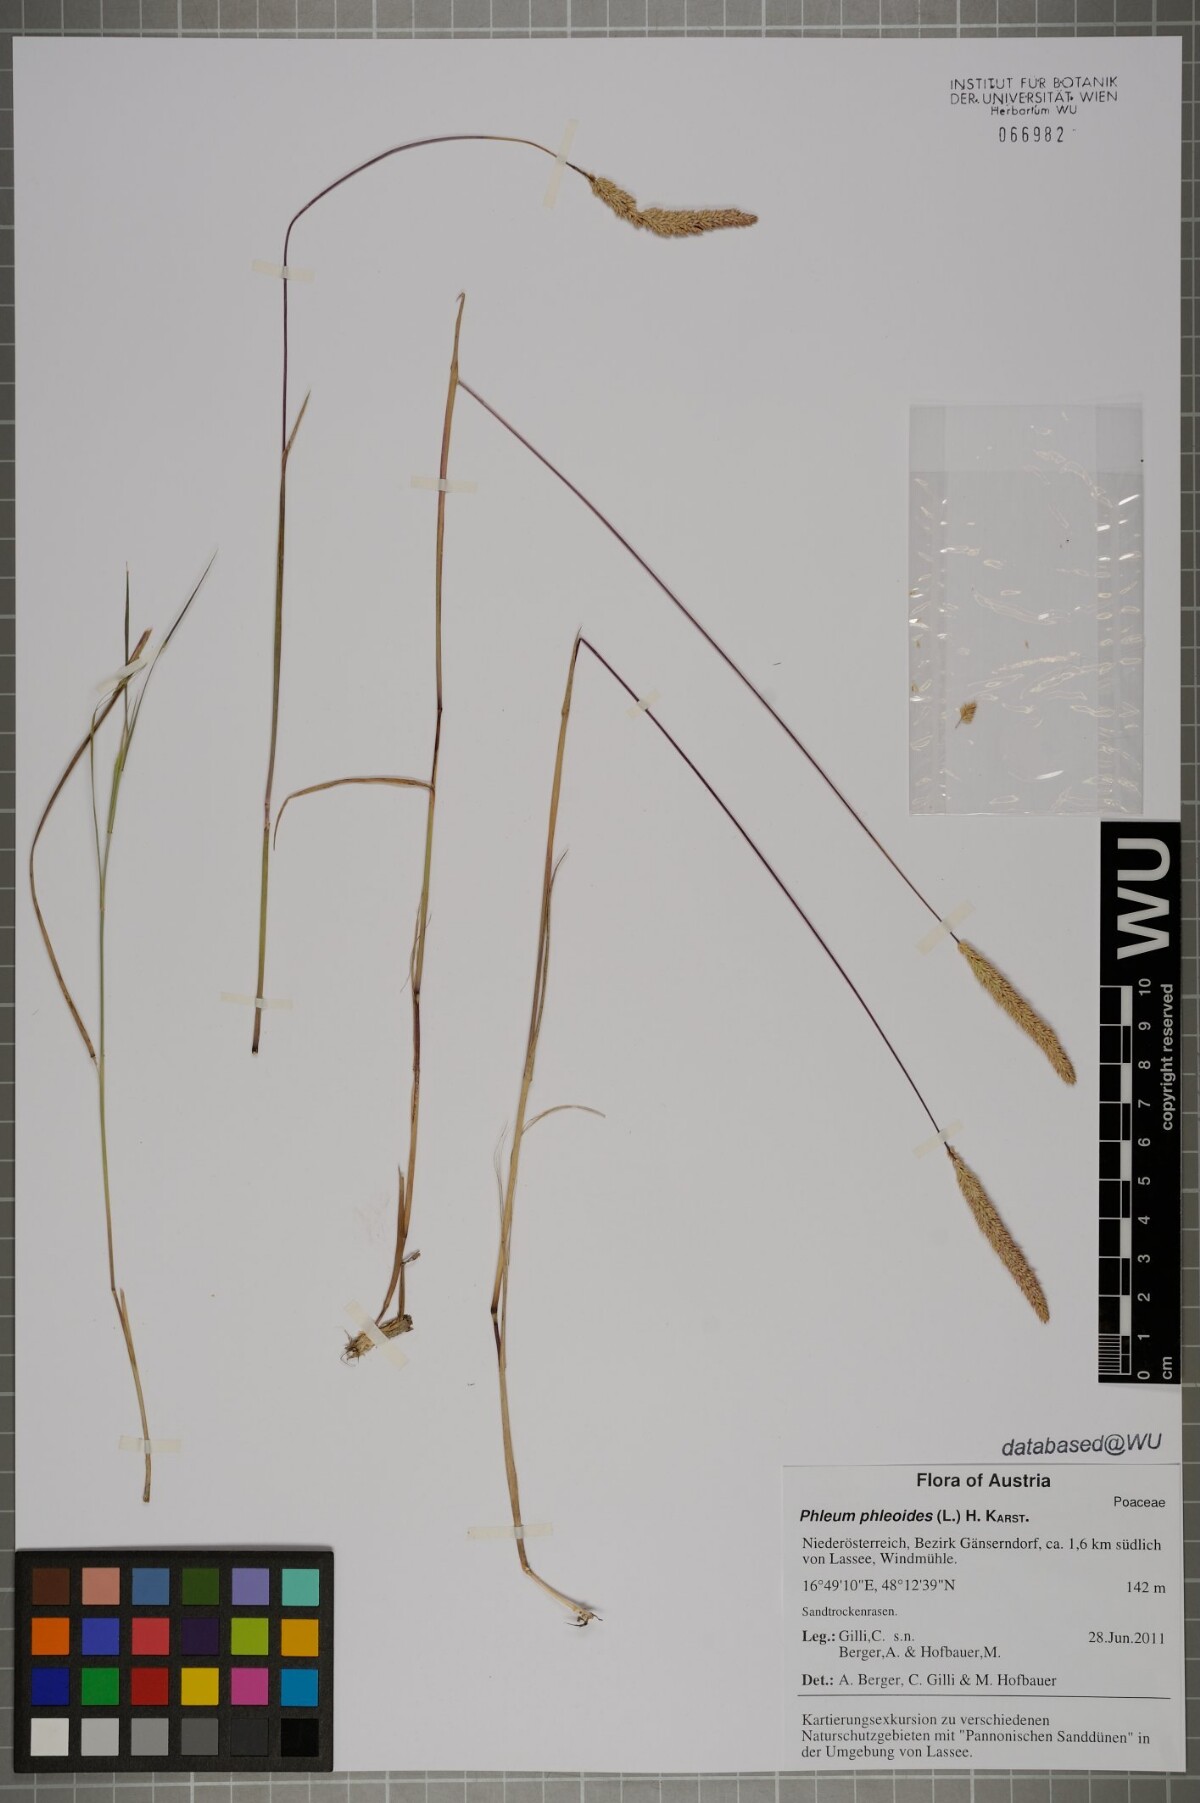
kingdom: Plantae
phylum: Tracheophyta
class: Liliopsida
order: Poales
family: Poaceae
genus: Phleum
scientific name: Phleum phleoides
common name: Purple-stem cat's-tail
